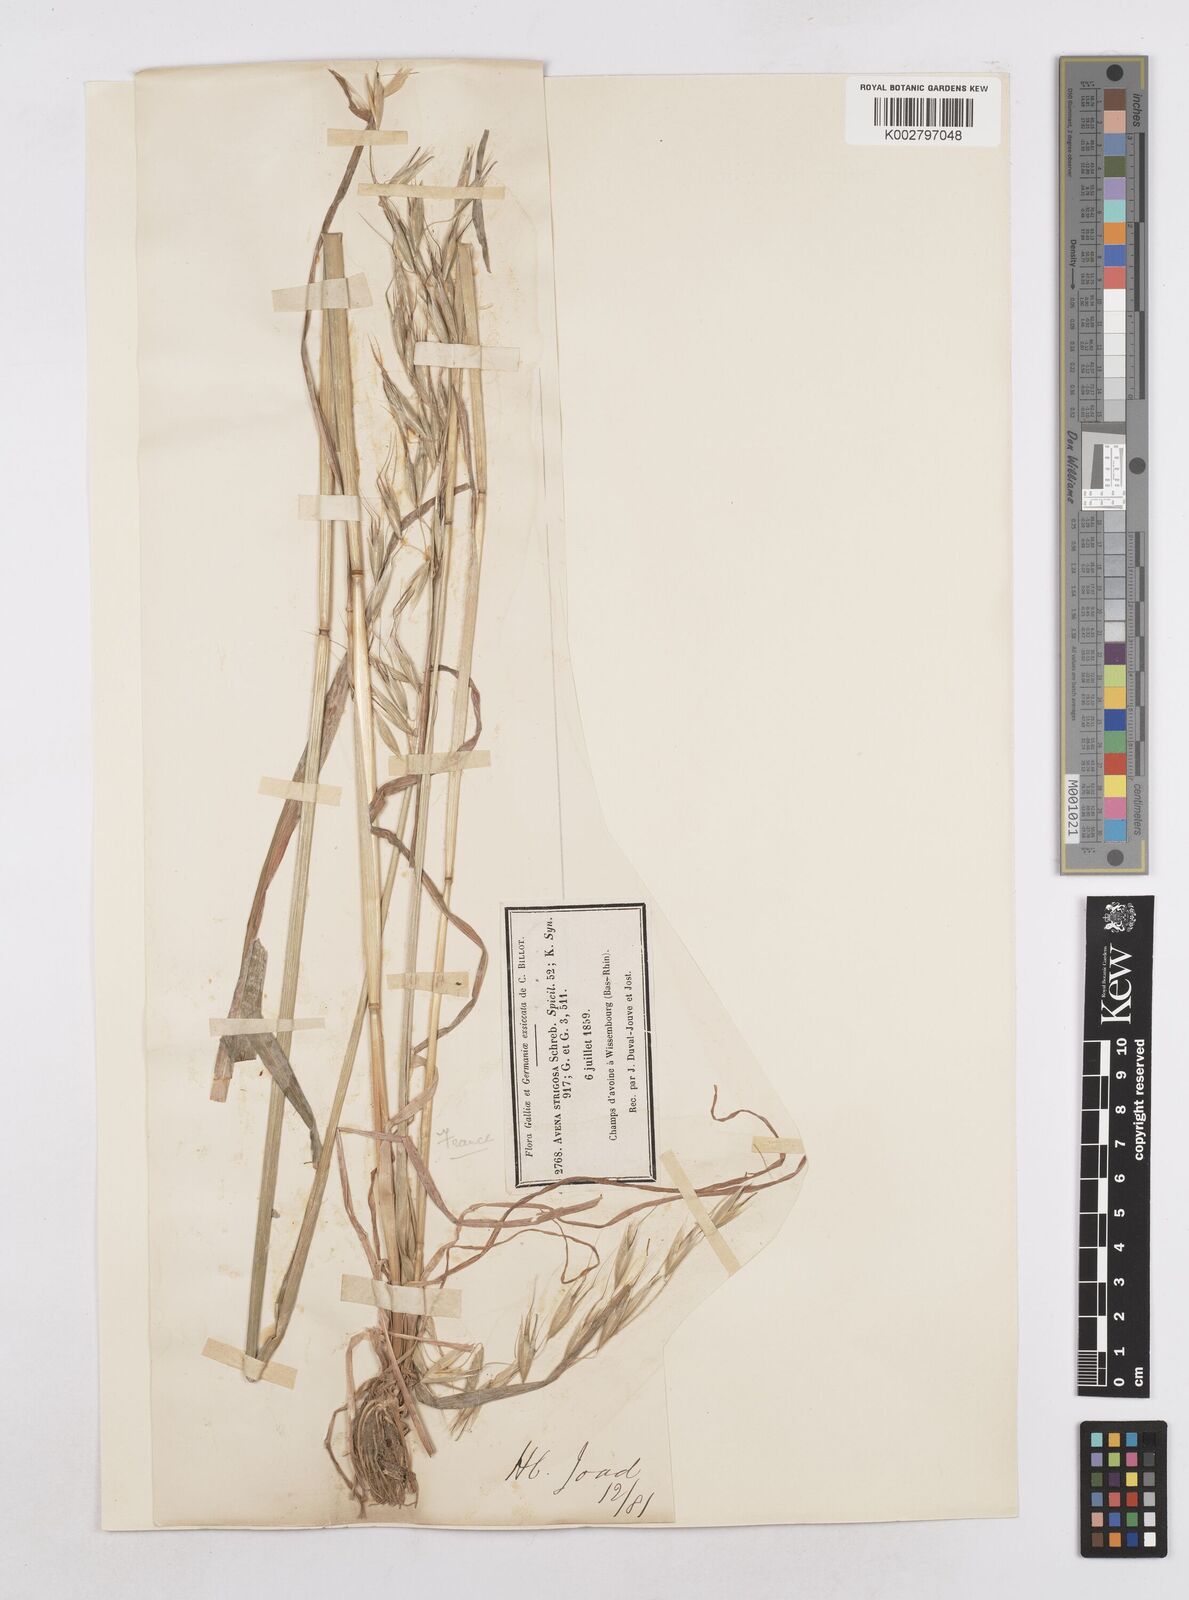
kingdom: Plantae
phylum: Tracheophyta
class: Liliopsida
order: Poales
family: Poaceae
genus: Avena
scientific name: Avena strigosa
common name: Bristle oat
